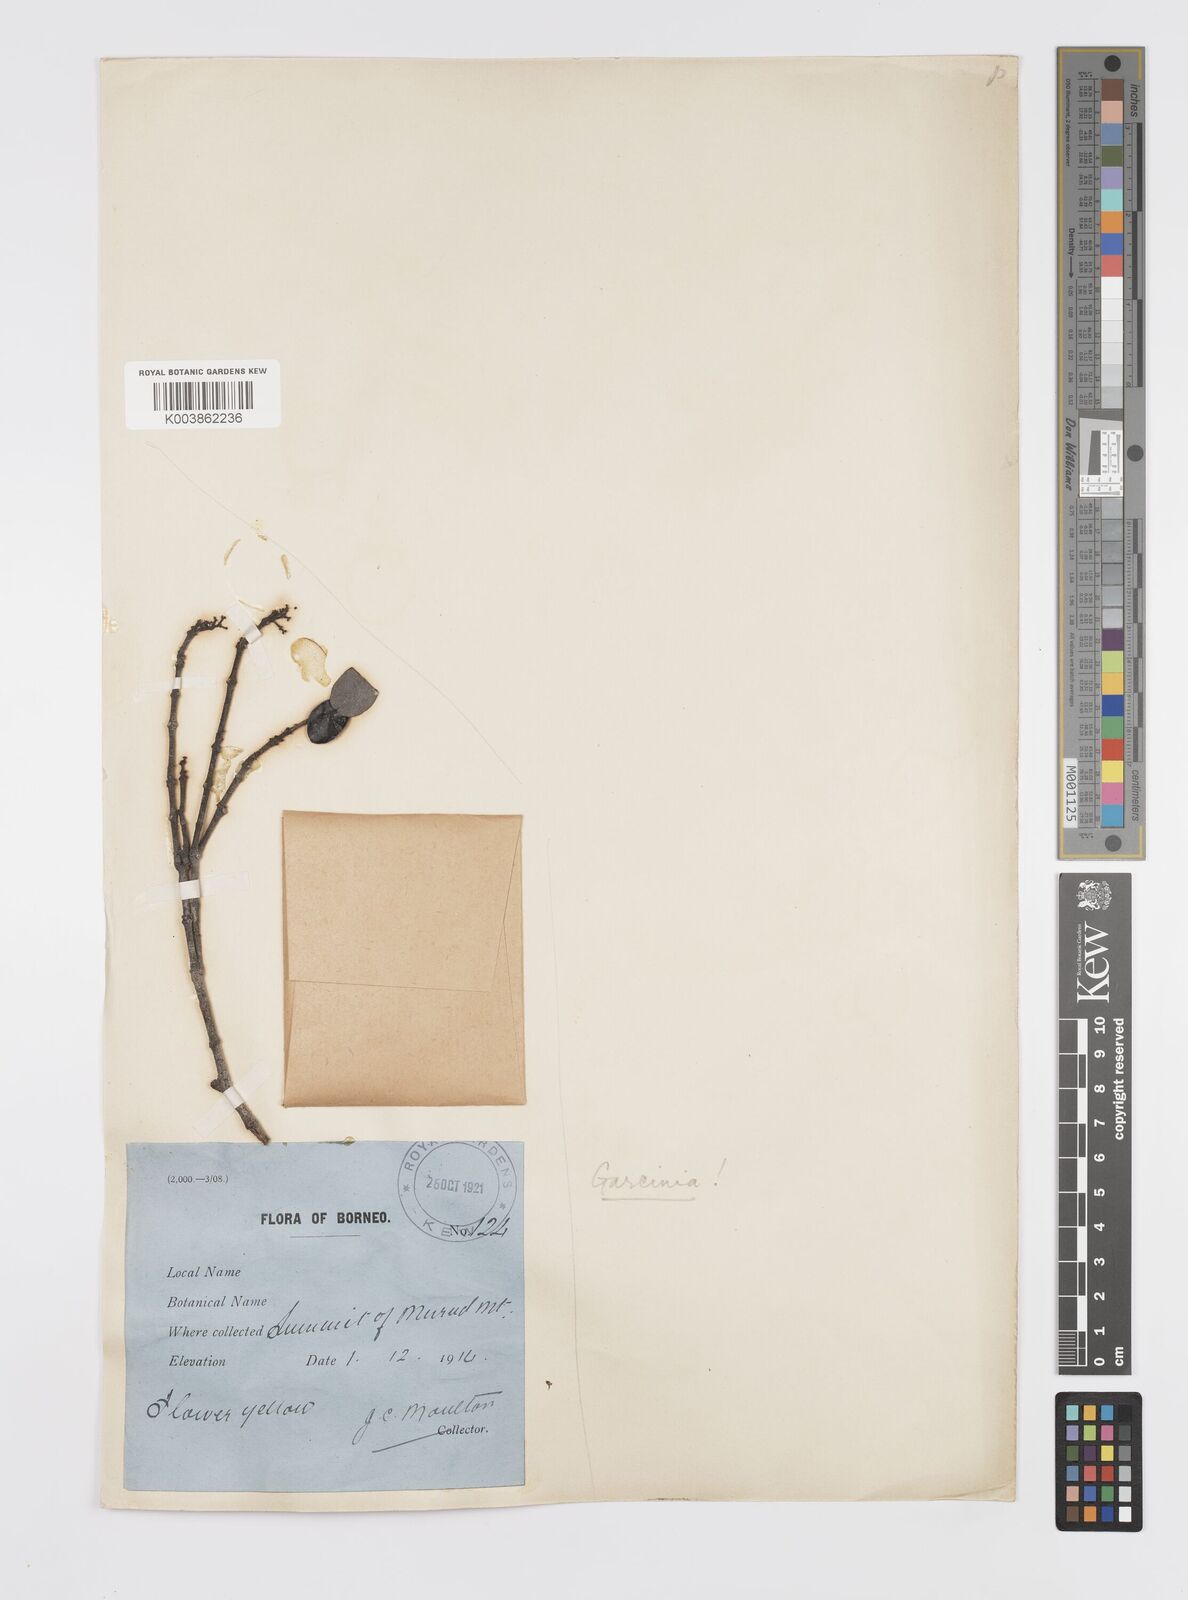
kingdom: Plantae
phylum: Tracheophyta
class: Magnoliopsida
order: Malpighiales
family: Clusiaceae
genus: Garcinia
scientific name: Garcinia
